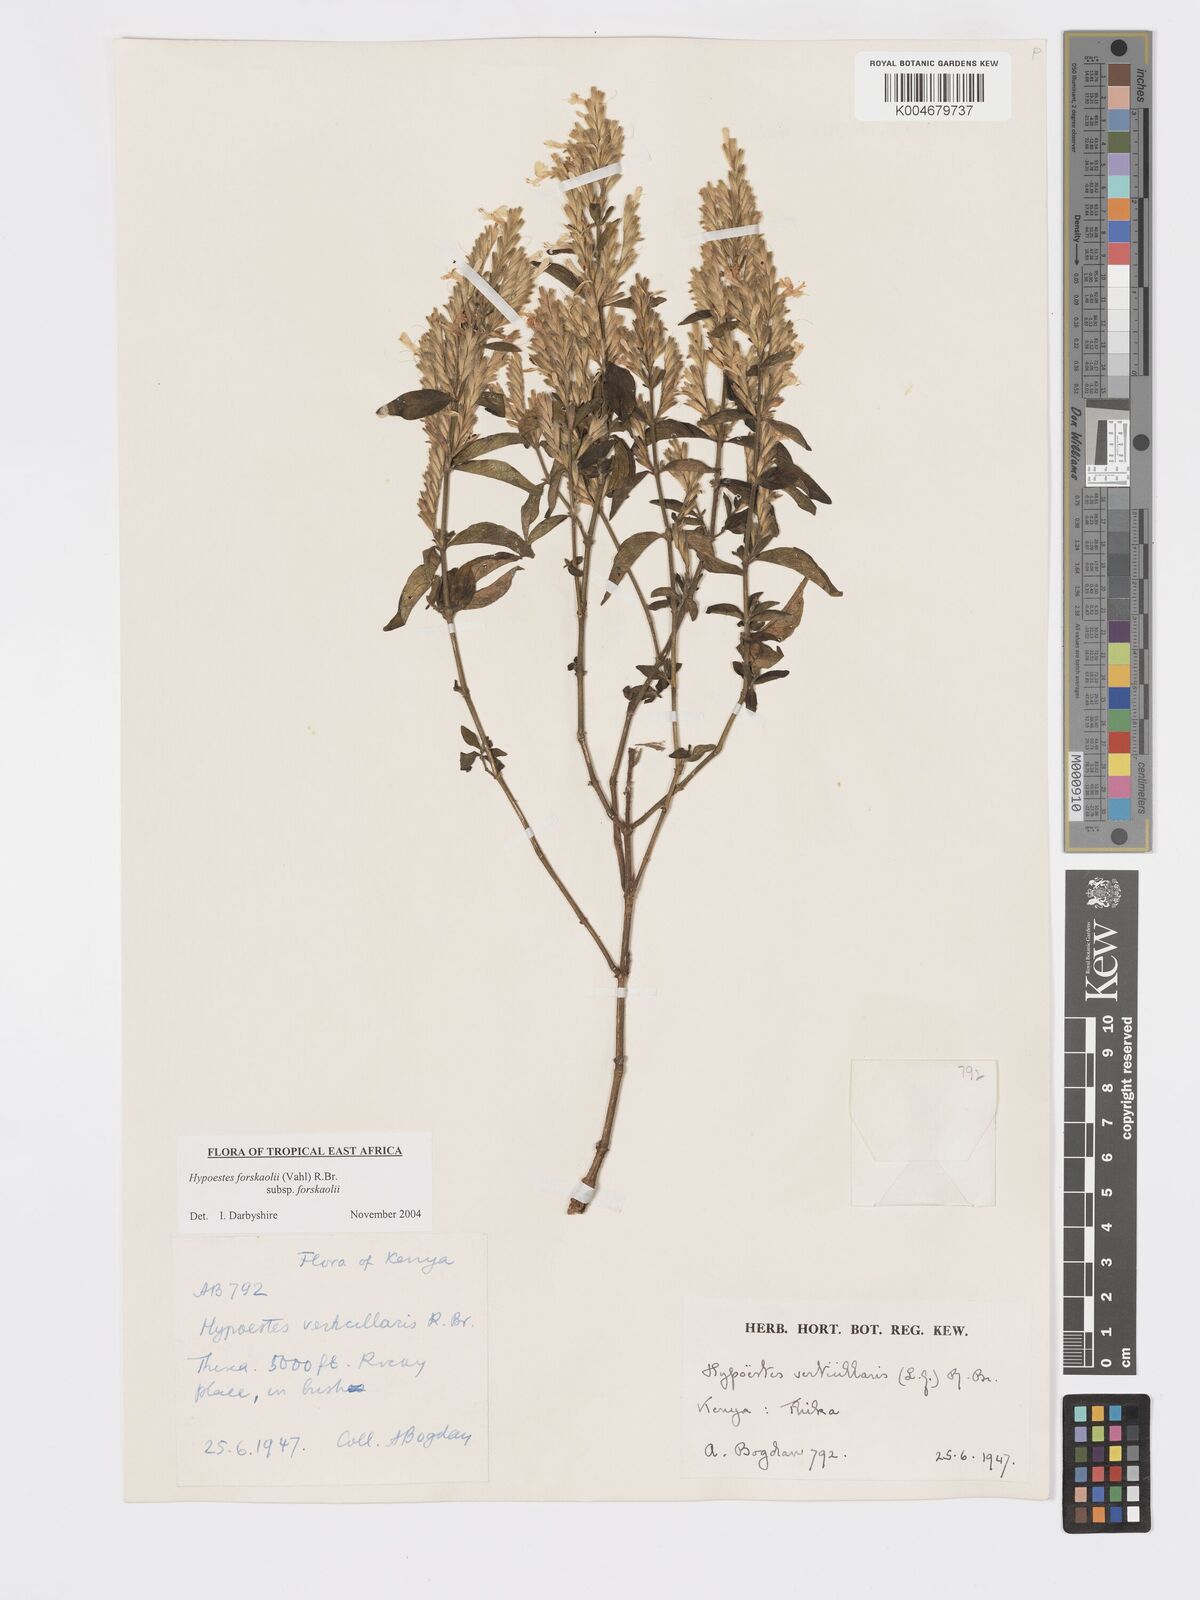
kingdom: Plantae
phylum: Tracheophyta
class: Magnoliopsida
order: Lamiales
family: Acanthaceae
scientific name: Acanthaceae
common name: Acanthaceae
